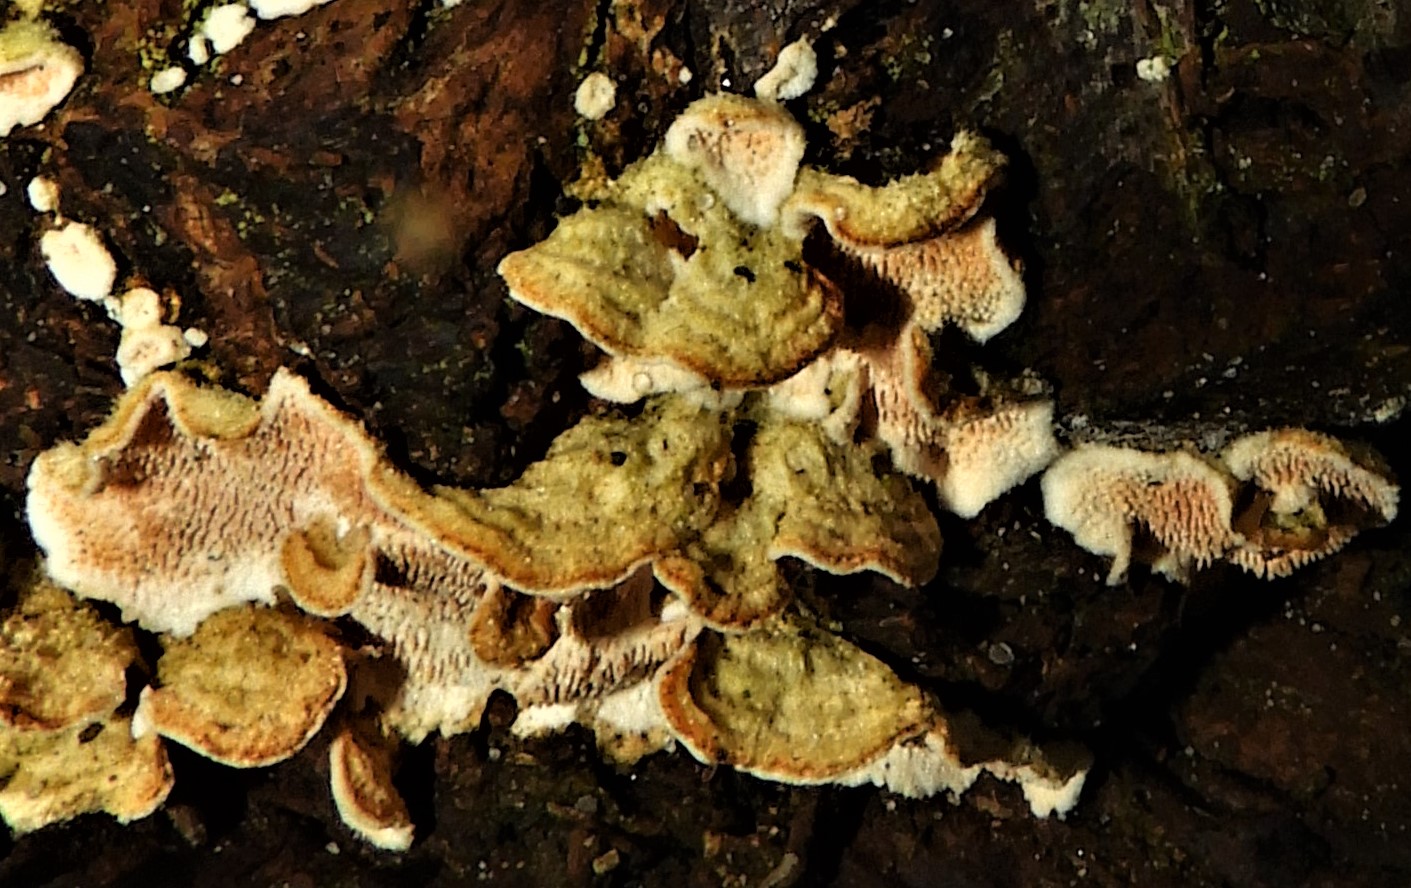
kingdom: Fungi
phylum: Basidiomycota
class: Agaricomycetes
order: Polyporales
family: Steccherinaceae
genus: Steccherinum
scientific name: Steccherinum ochraceum
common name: almindelig skønpig
